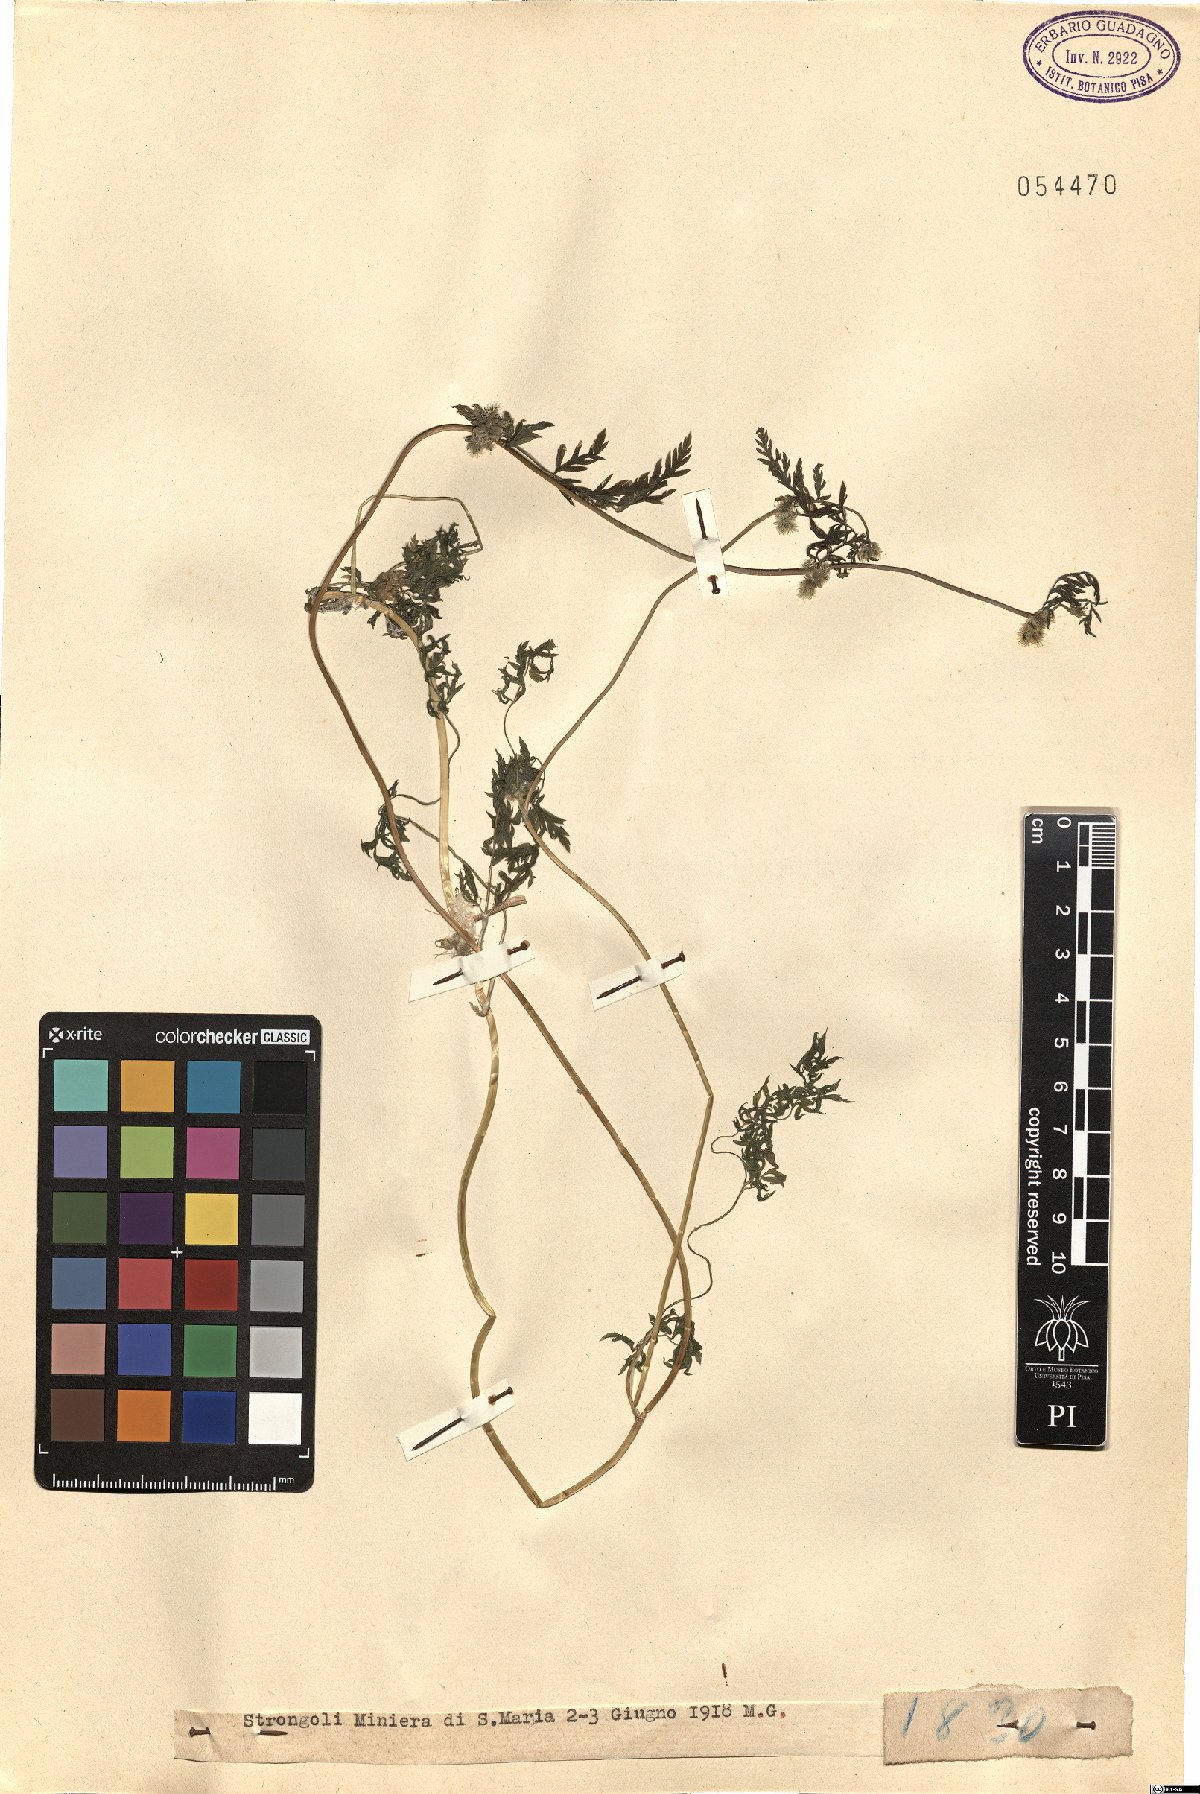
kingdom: Plantae
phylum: Tracheophyta
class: Magnoliopsida
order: Apiales
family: Apiaceae
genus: Torilis
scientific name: Torilis
